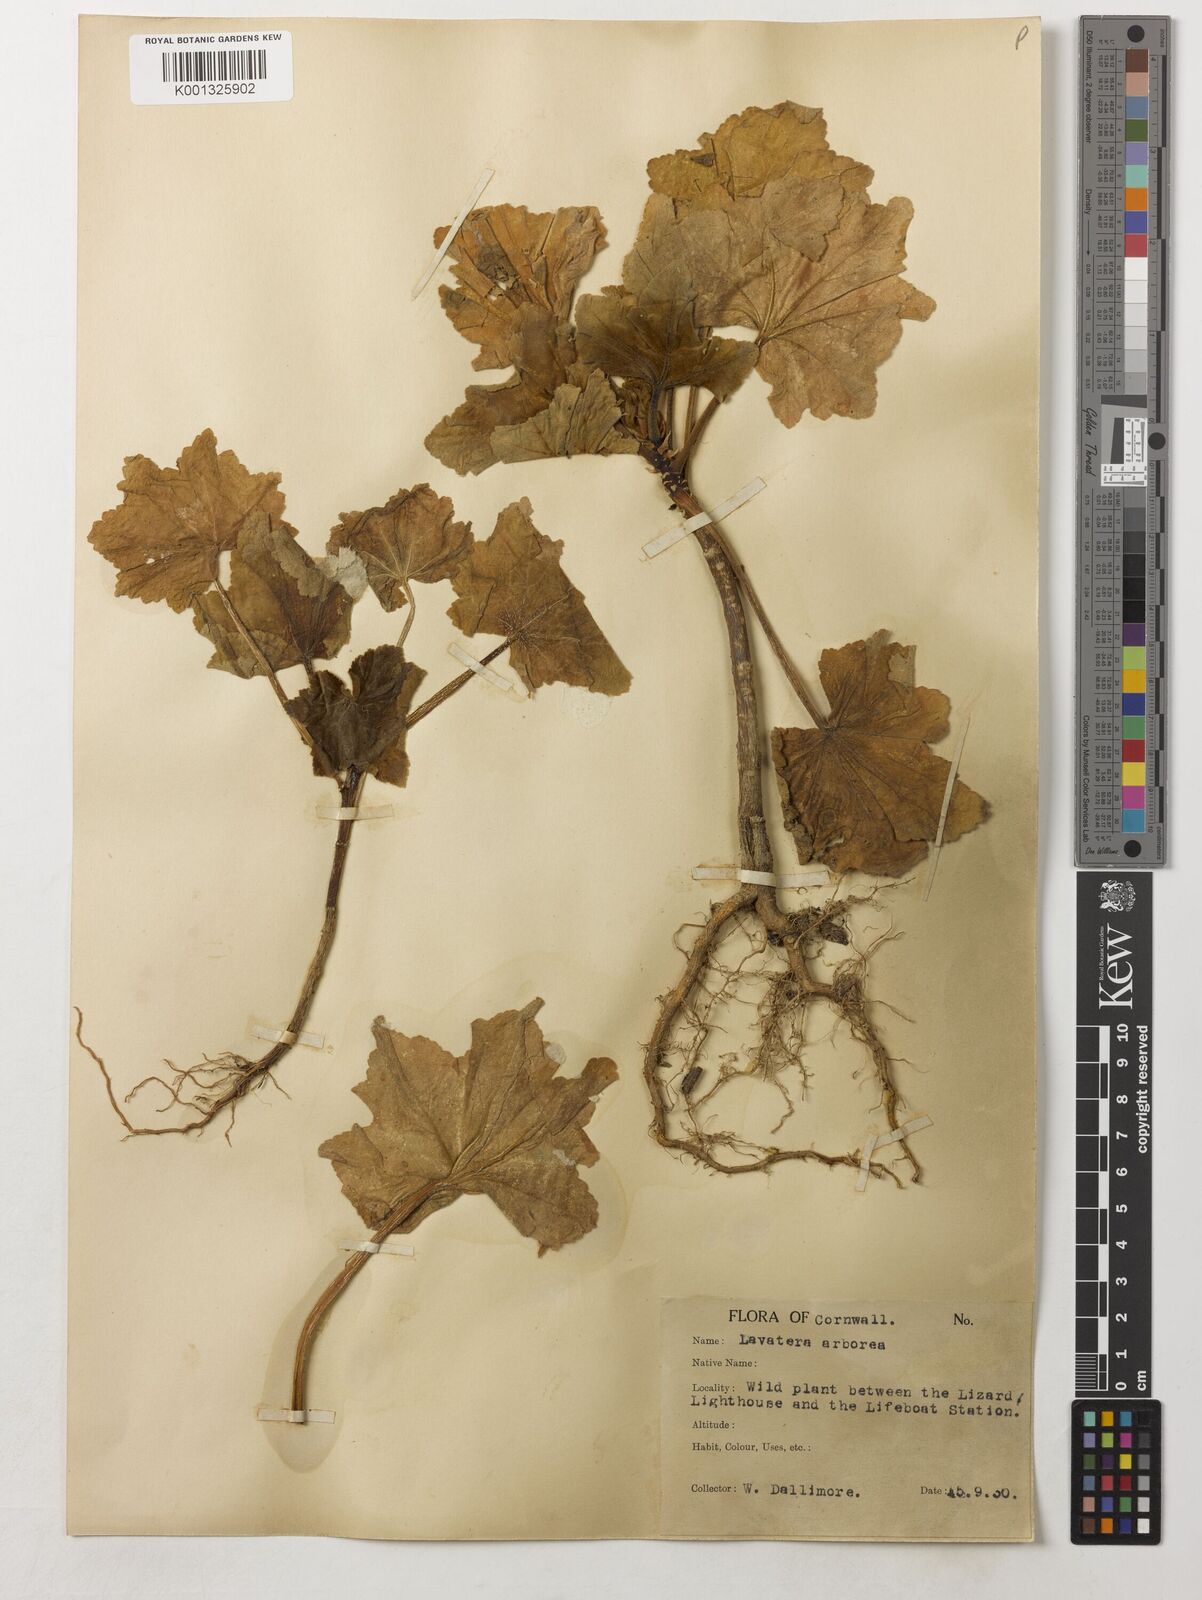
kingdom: Plantae
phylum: Tracheophyta
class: Magnoliopsida
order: Malvales
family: Malvaceae
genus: Malva
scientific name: Malva arborea
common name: Tree mallow
